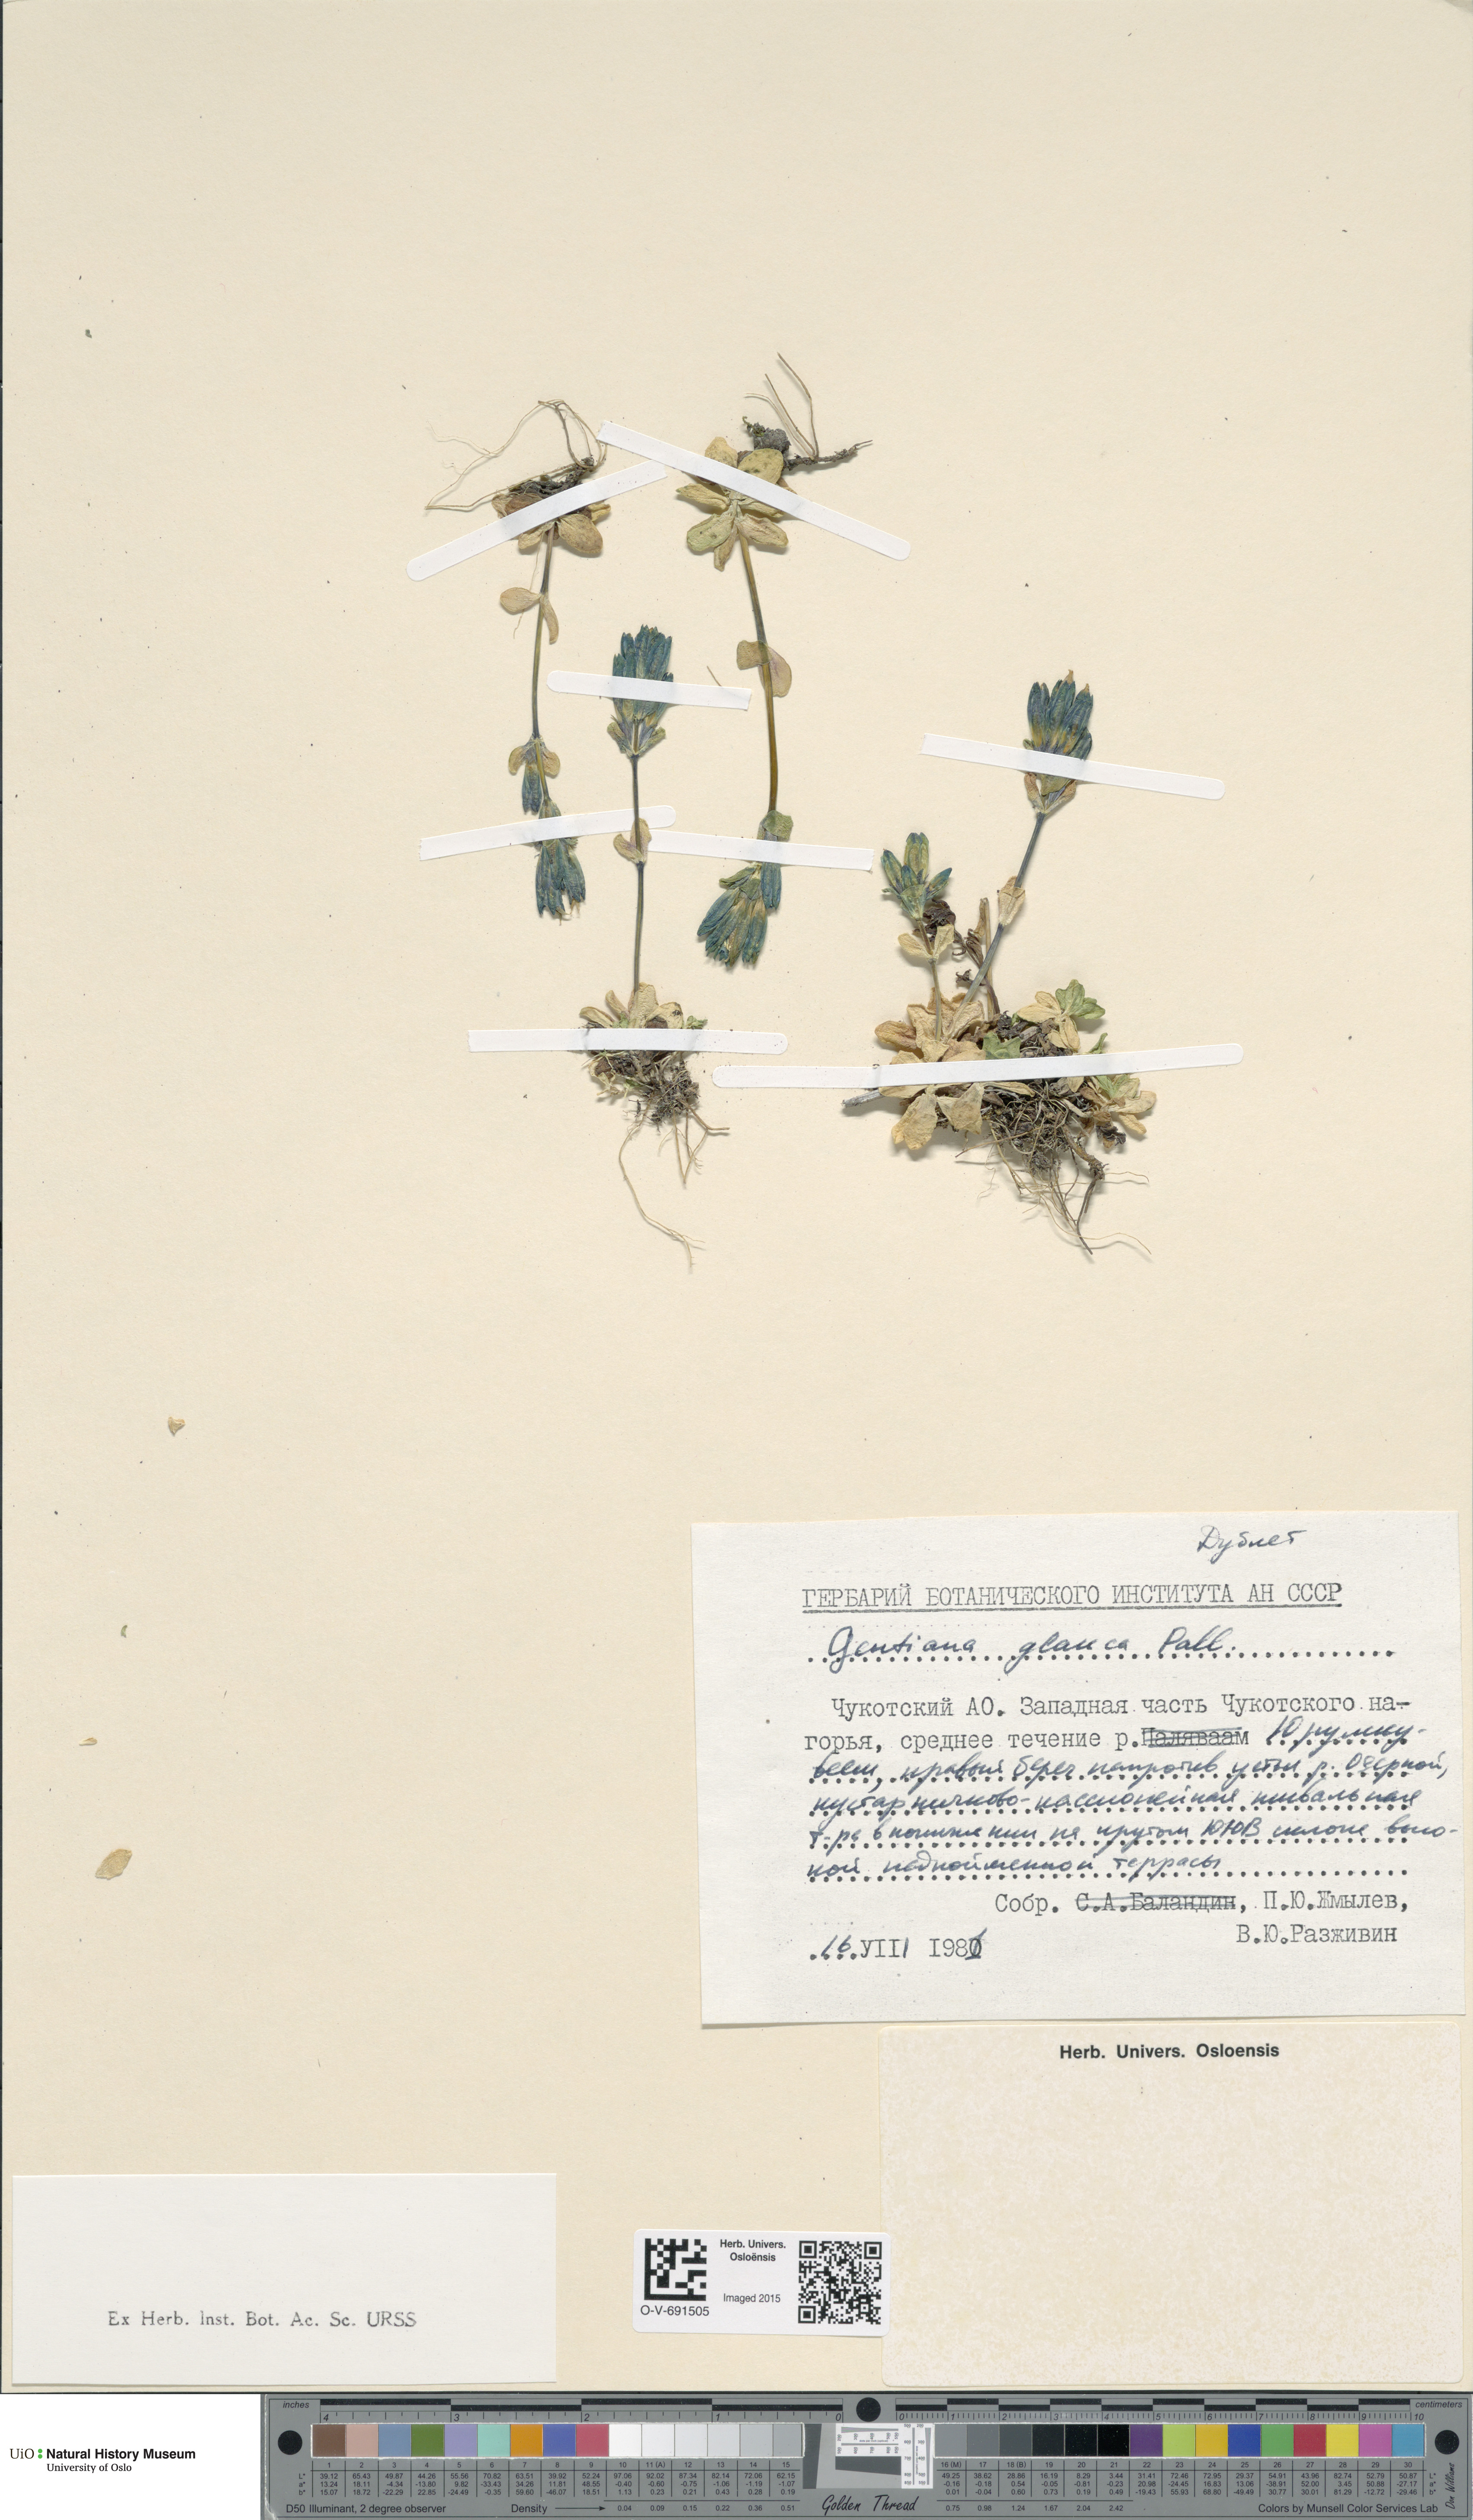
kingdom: Plantae
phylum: Tracheophyta
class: Magnoliopsida
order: Gentianales
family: Gentianaceae
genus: Gentiana
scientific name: Gentiana glauca
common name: Alpine gentian
